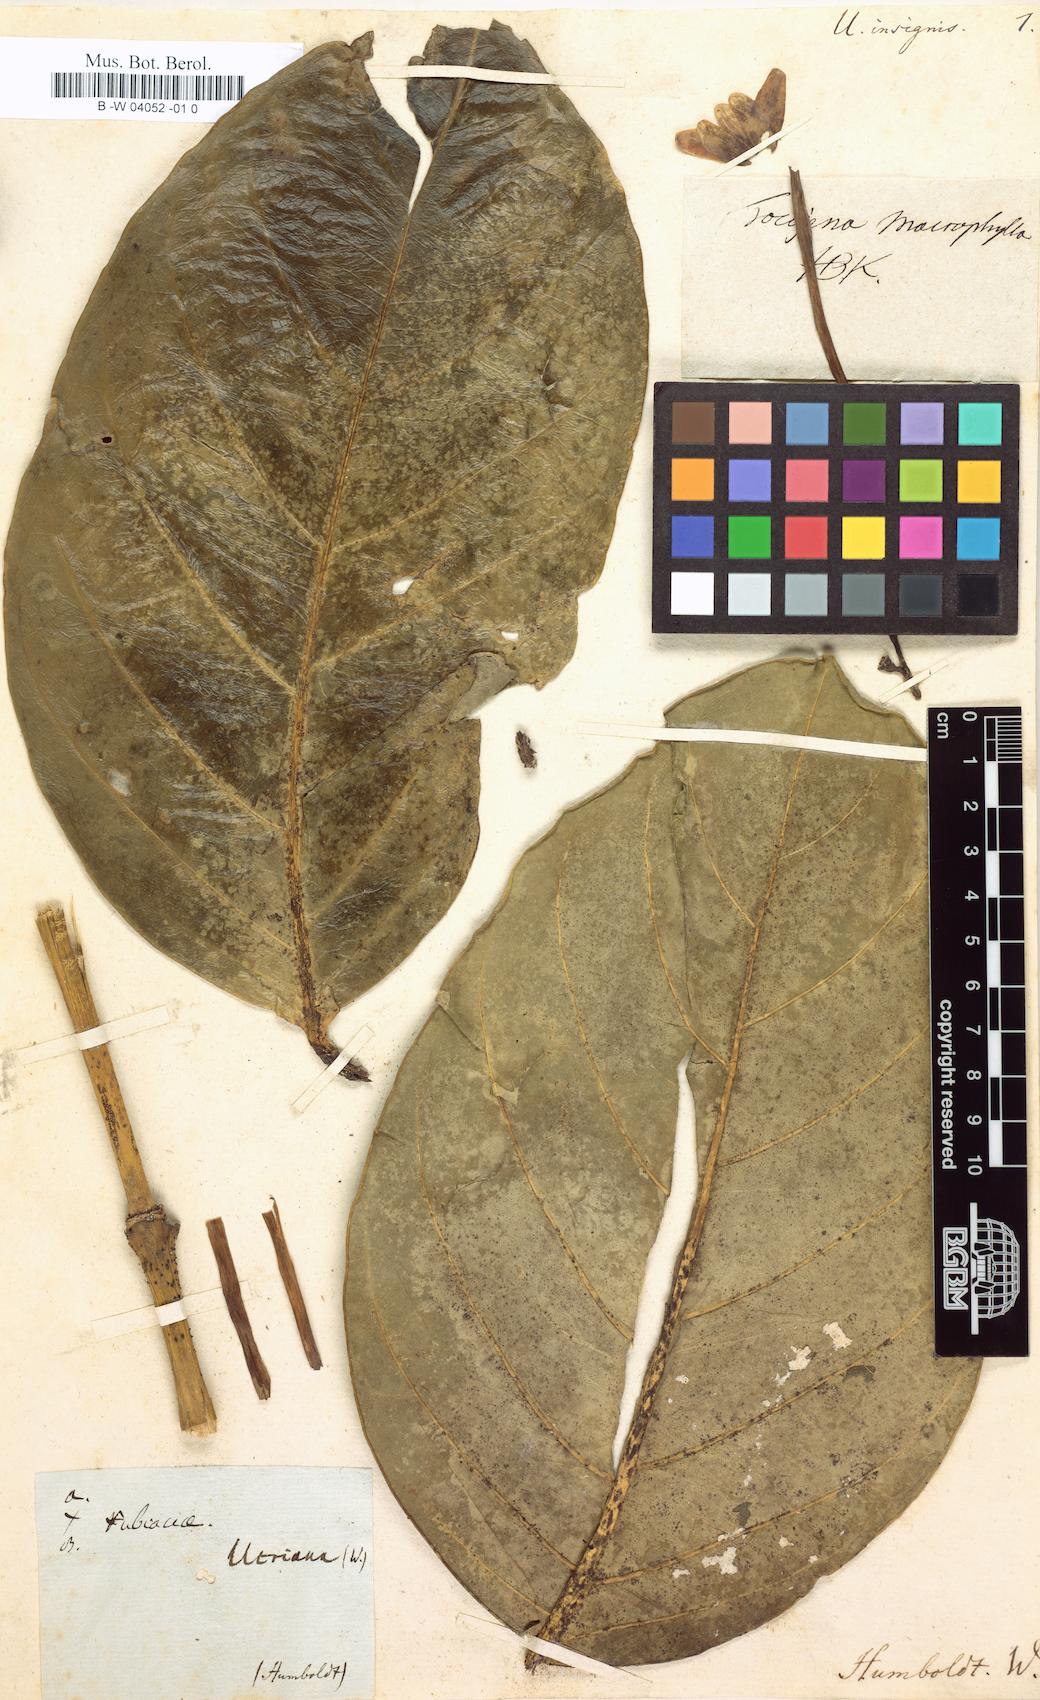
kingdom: Plantae
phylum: Tracheophyta
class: Magnoliopsida
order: Gentianales
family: Rubiaceae
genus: Posoqueria
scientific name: Posoqueria latifolia
